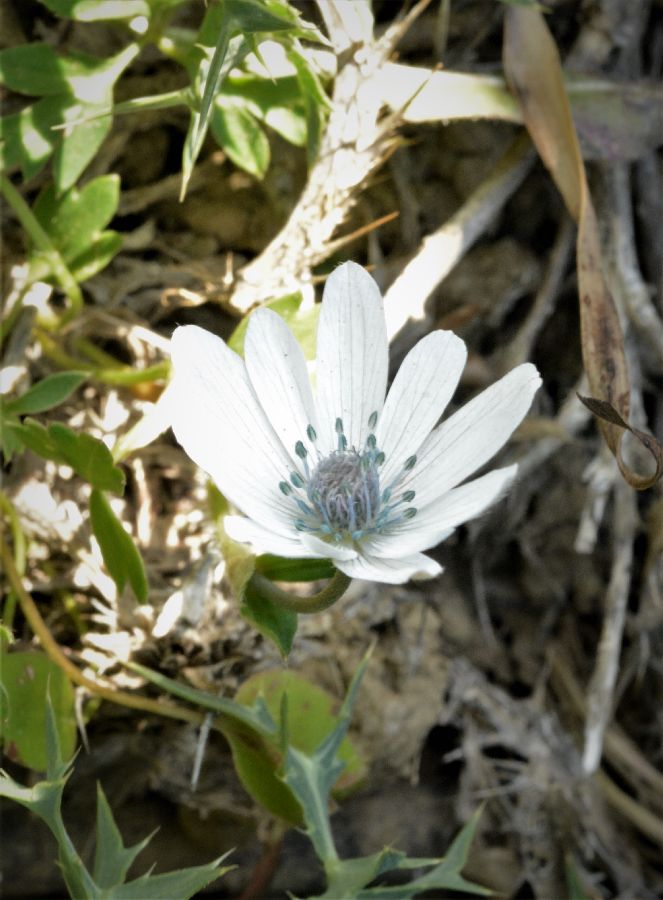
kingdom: Plantae
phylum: Tracheophyta
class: Magnoliopsida
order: Ranunculales
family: Ranunculaceae
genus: Anemone
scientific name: Anemone hortensis
